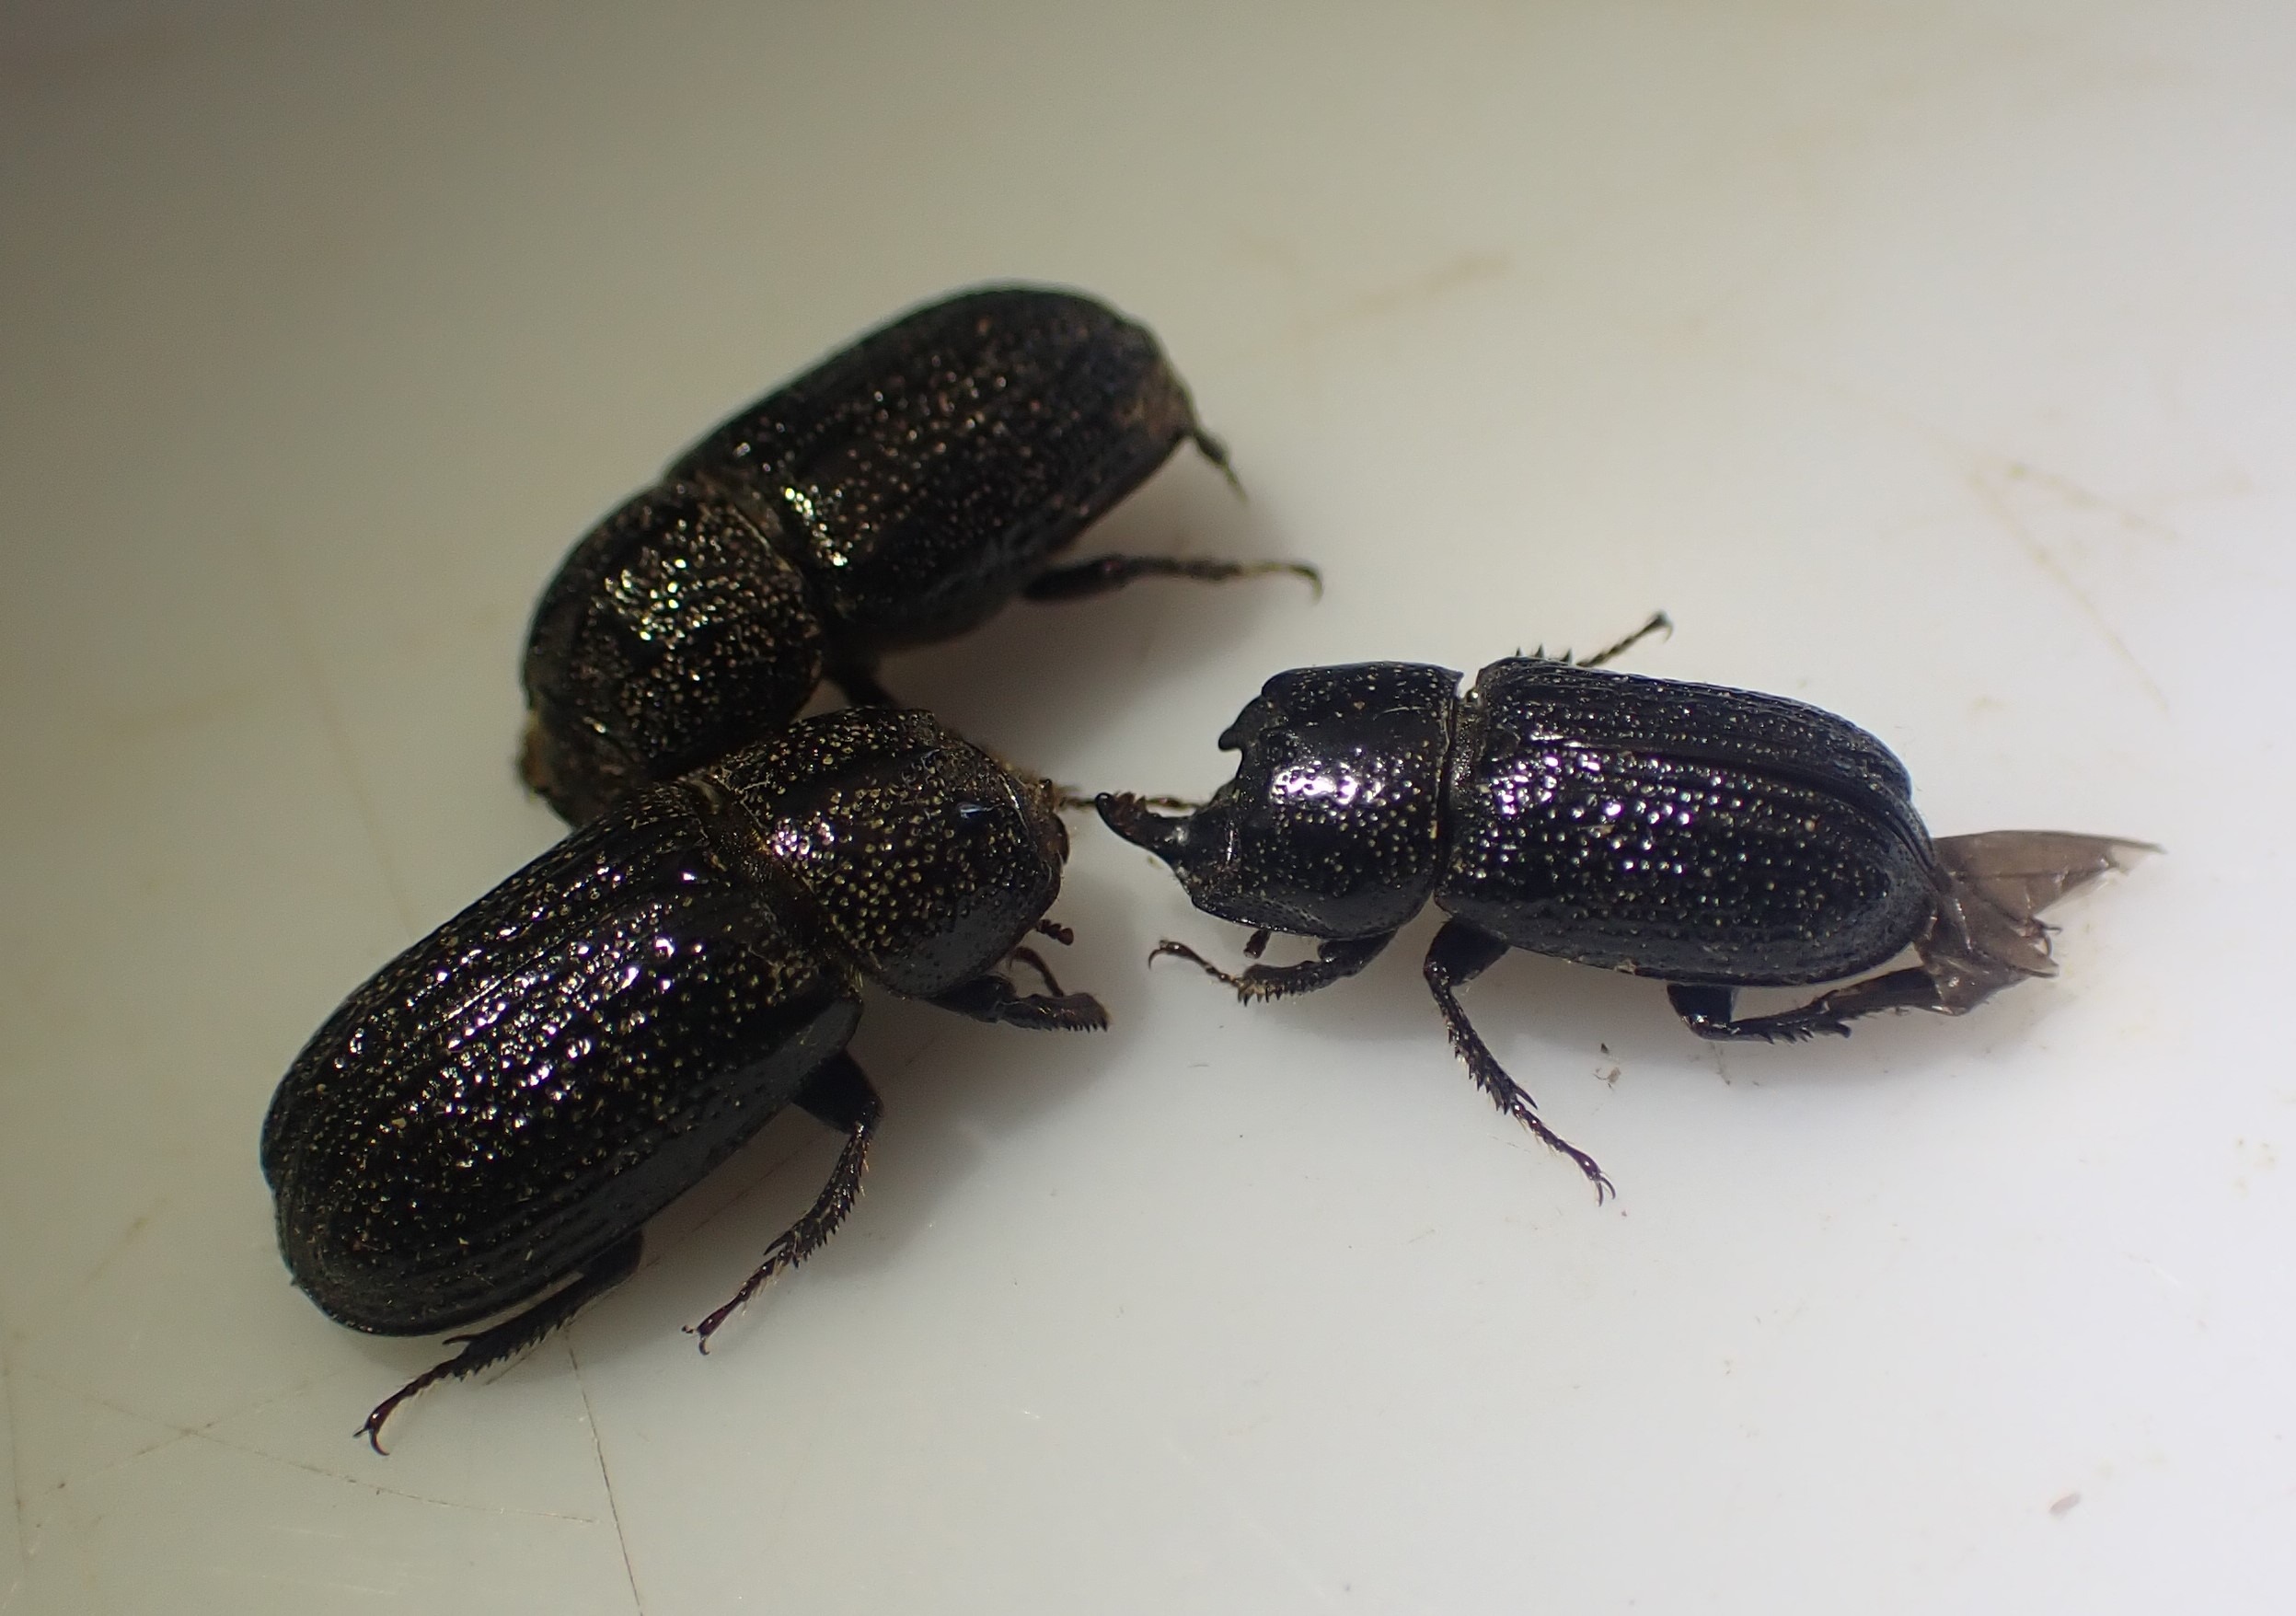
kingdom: Animalia
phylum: Arthropoda
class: Insecta
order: Coleoptera
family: Lucanidae
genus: Sinodendron
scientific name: Sinodendron cylindricum
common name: Valsehjort
